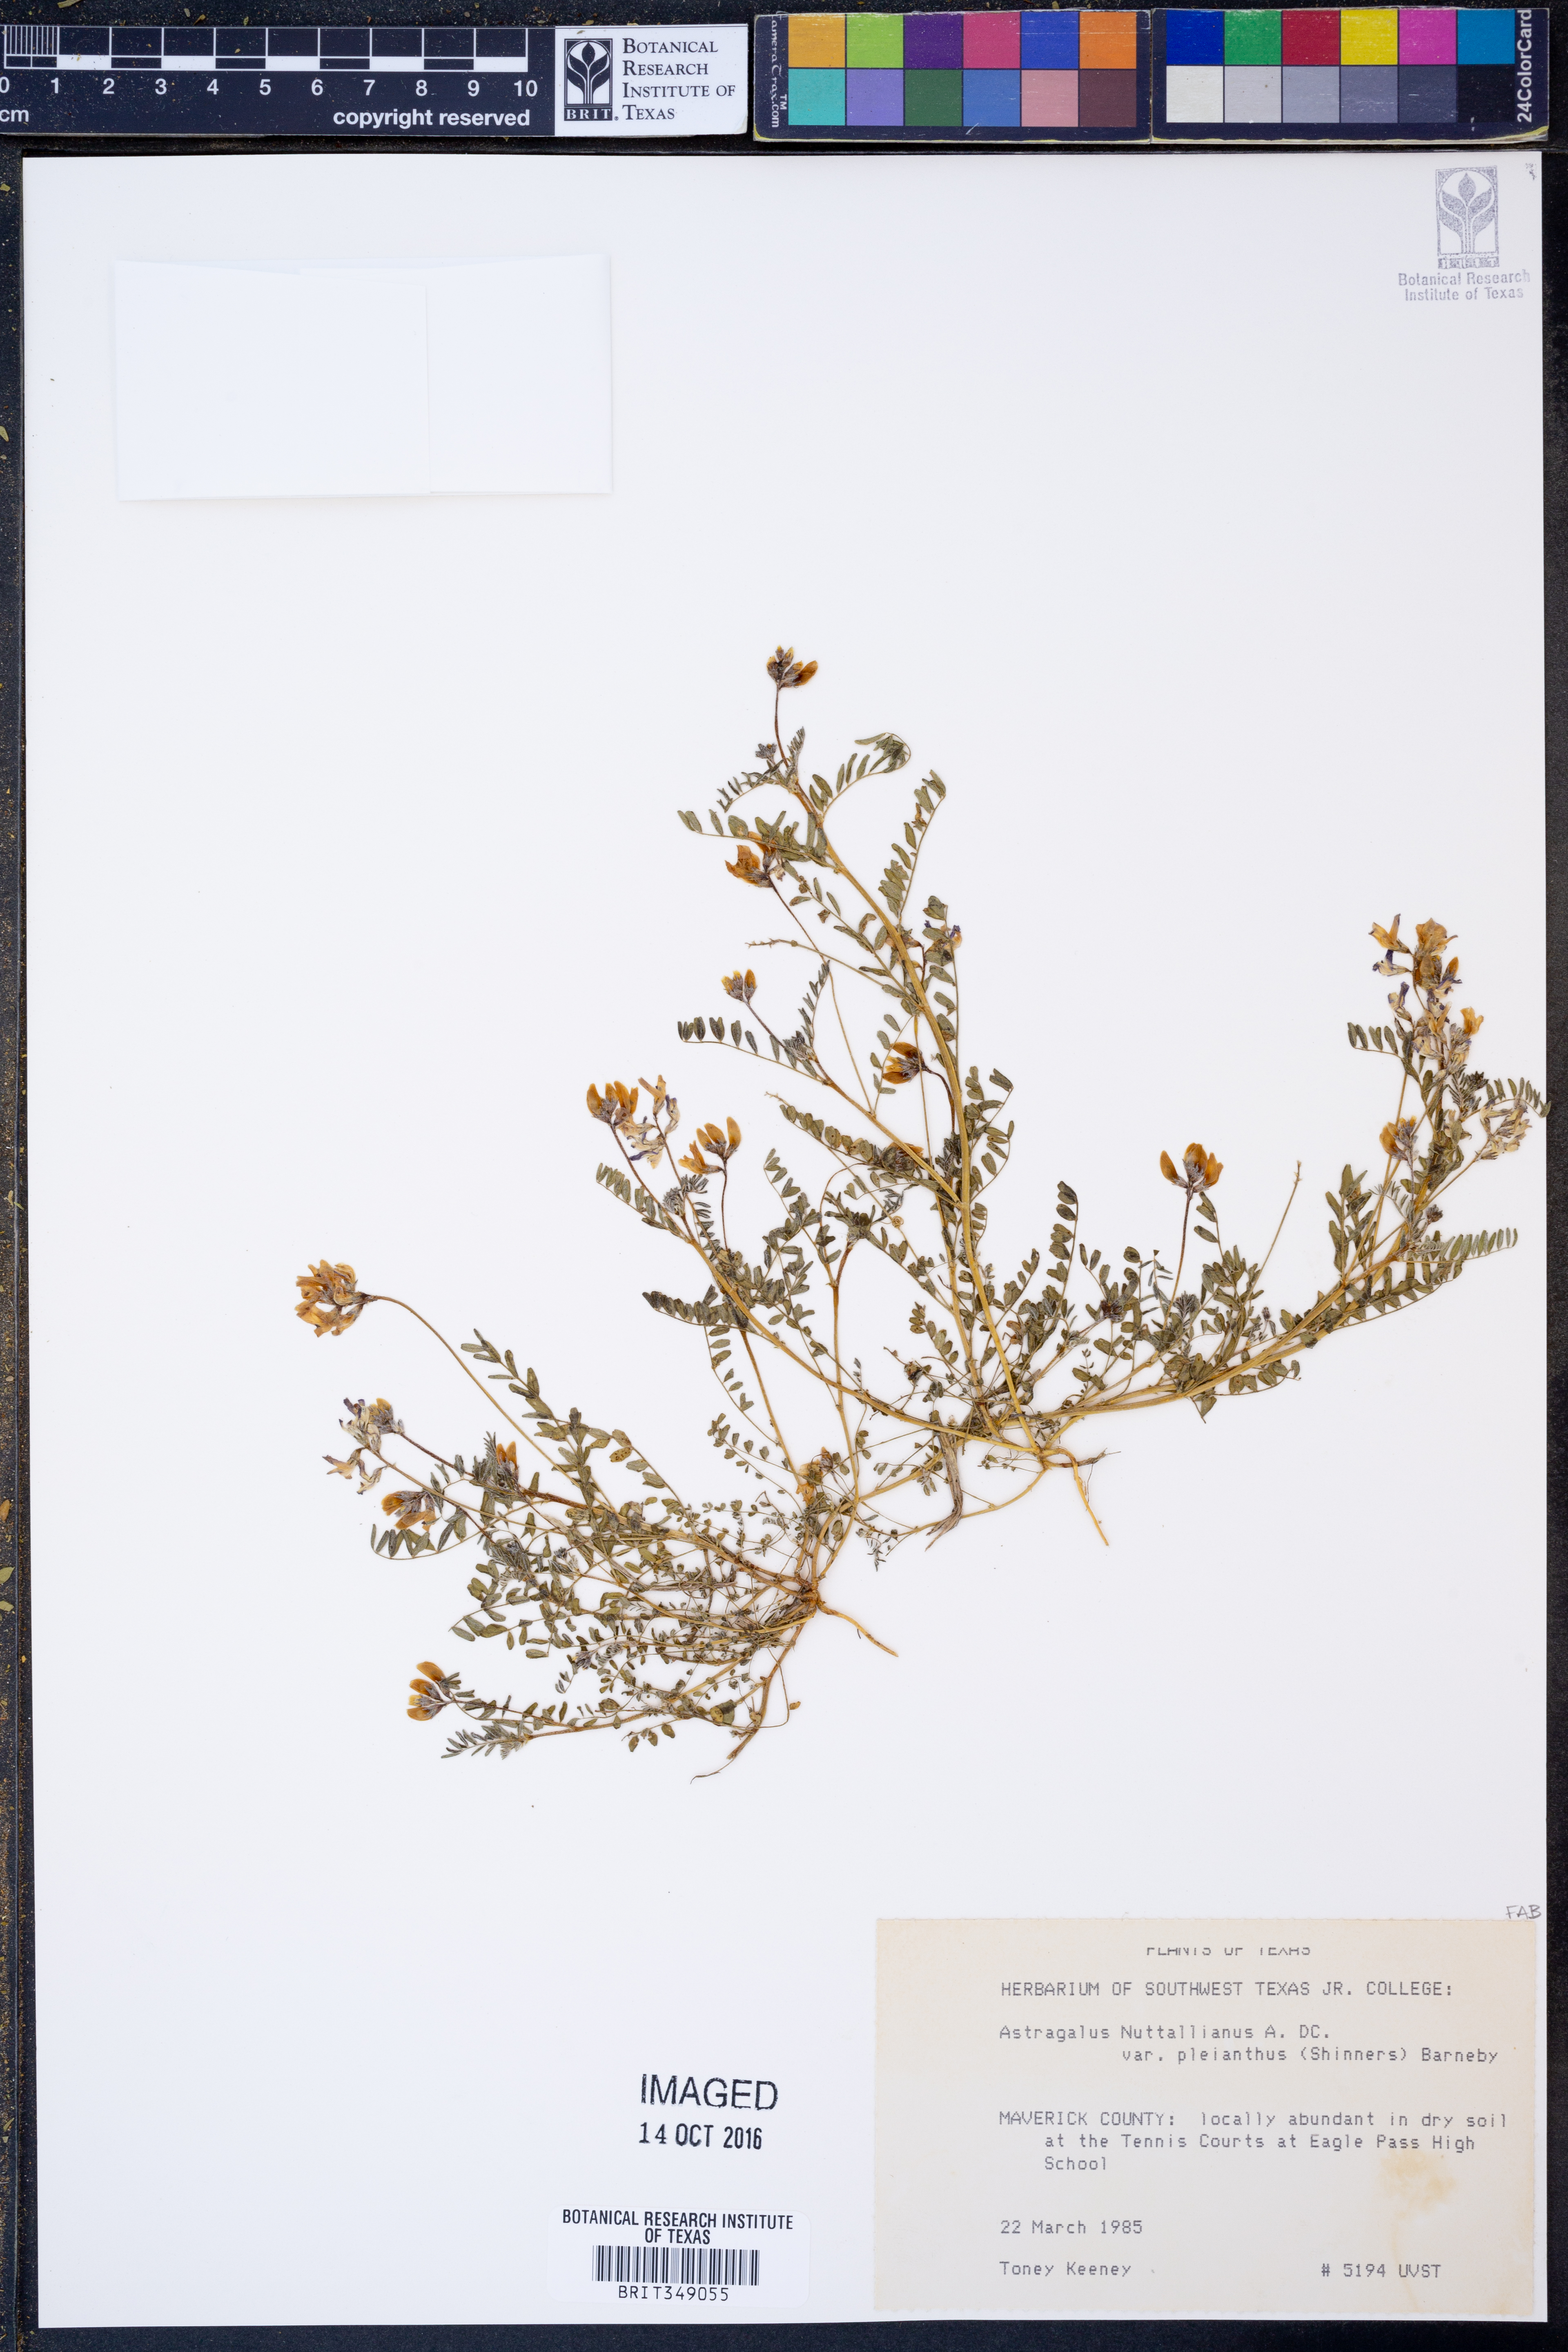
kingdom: Plantae
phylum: Tracheophyta
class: Magnoliopsida
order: Fabales
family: Fabaceae
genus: Astragalus
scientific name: Astragalus pleianthus
